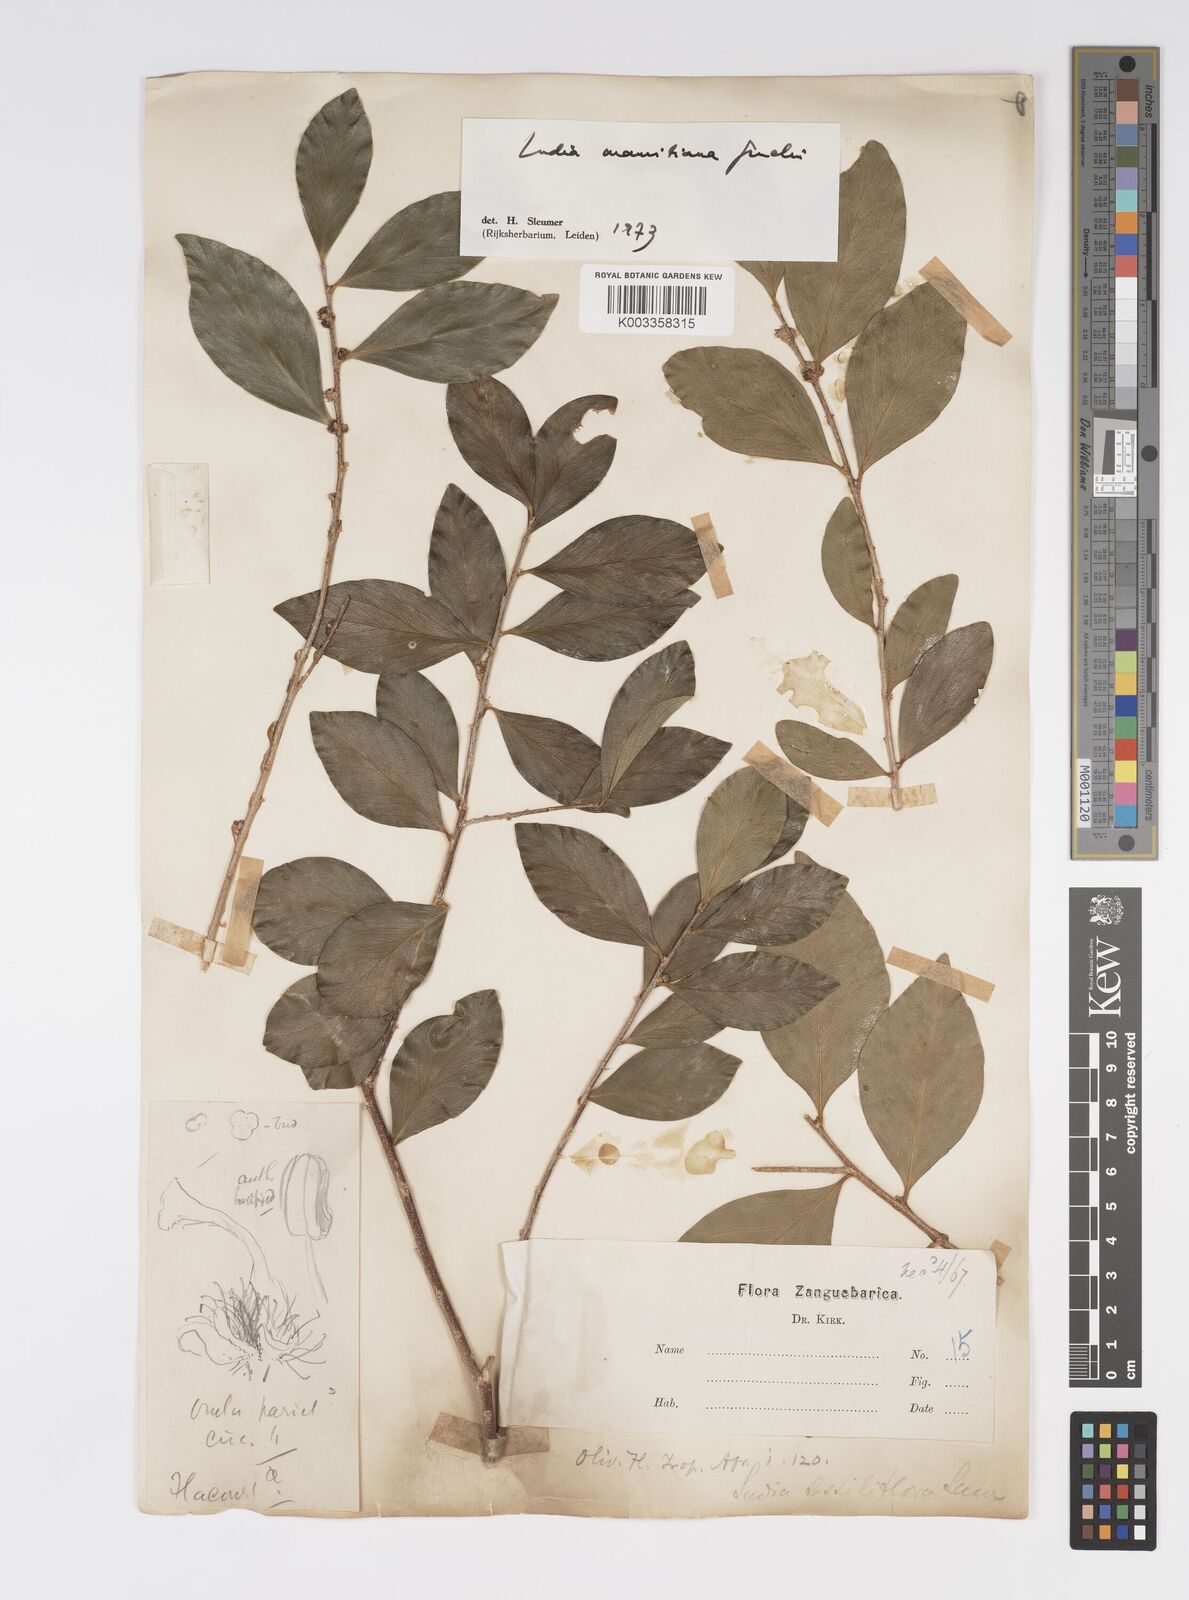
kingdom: Plantae
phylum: Tracheophyta
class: Magnoliopsida
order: Malpighiales
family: Salicaceae
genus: Ludia
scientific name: Ludia mauritiana
